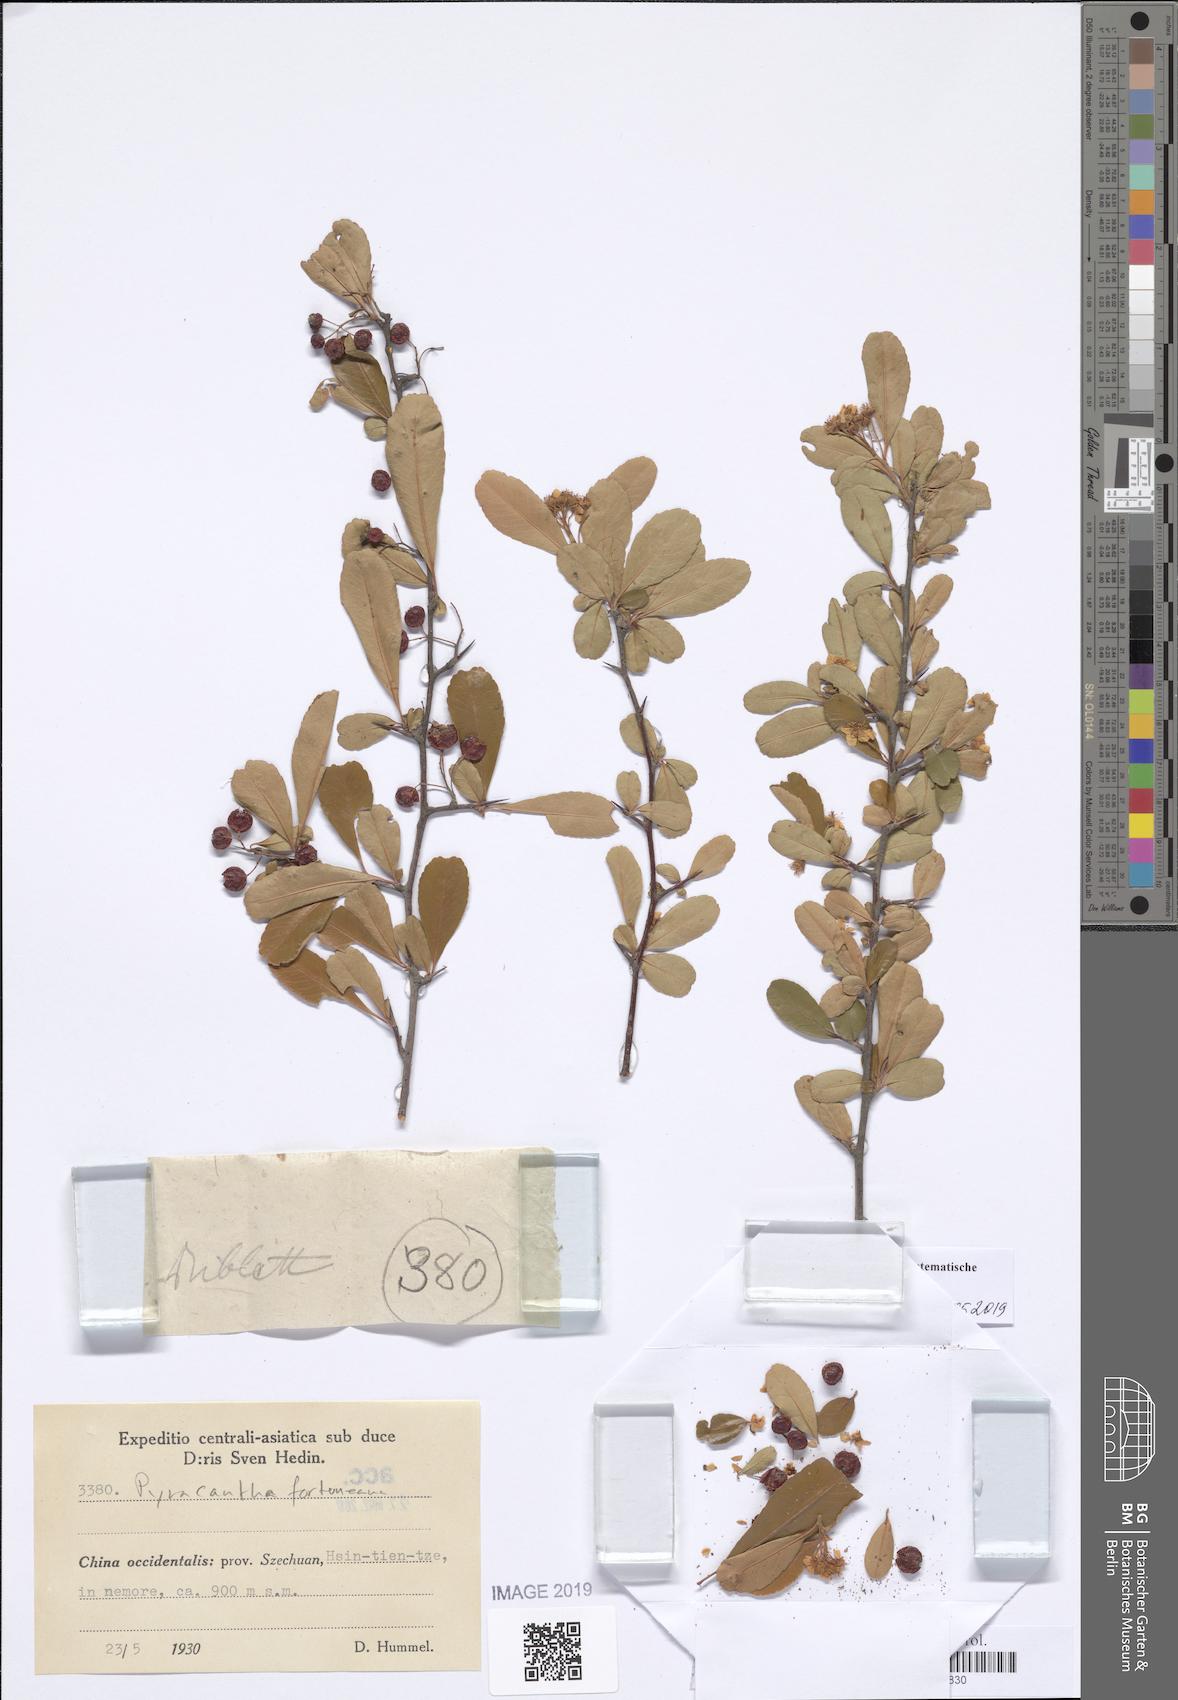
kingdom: Plantae
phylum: Tracheophyta
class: Magnoliopsida
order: Rosales
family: Rosaceae
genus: Pyracantha
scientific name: Pyracantha fortuneana
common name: Chinese firethorn
